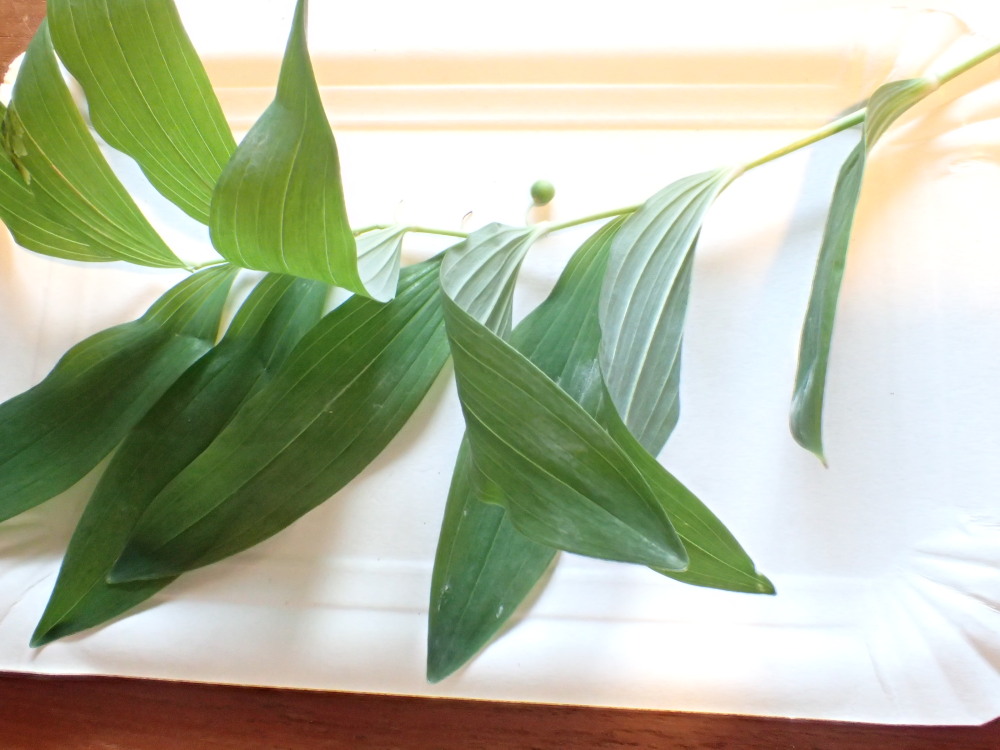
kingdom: Fungi
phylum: Basidiomycota
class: Pucciniomycetes
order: Pucciniales
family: Pucciniaceae
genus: Puccinia
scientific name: Puccinia sessilis
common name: Arum rust
